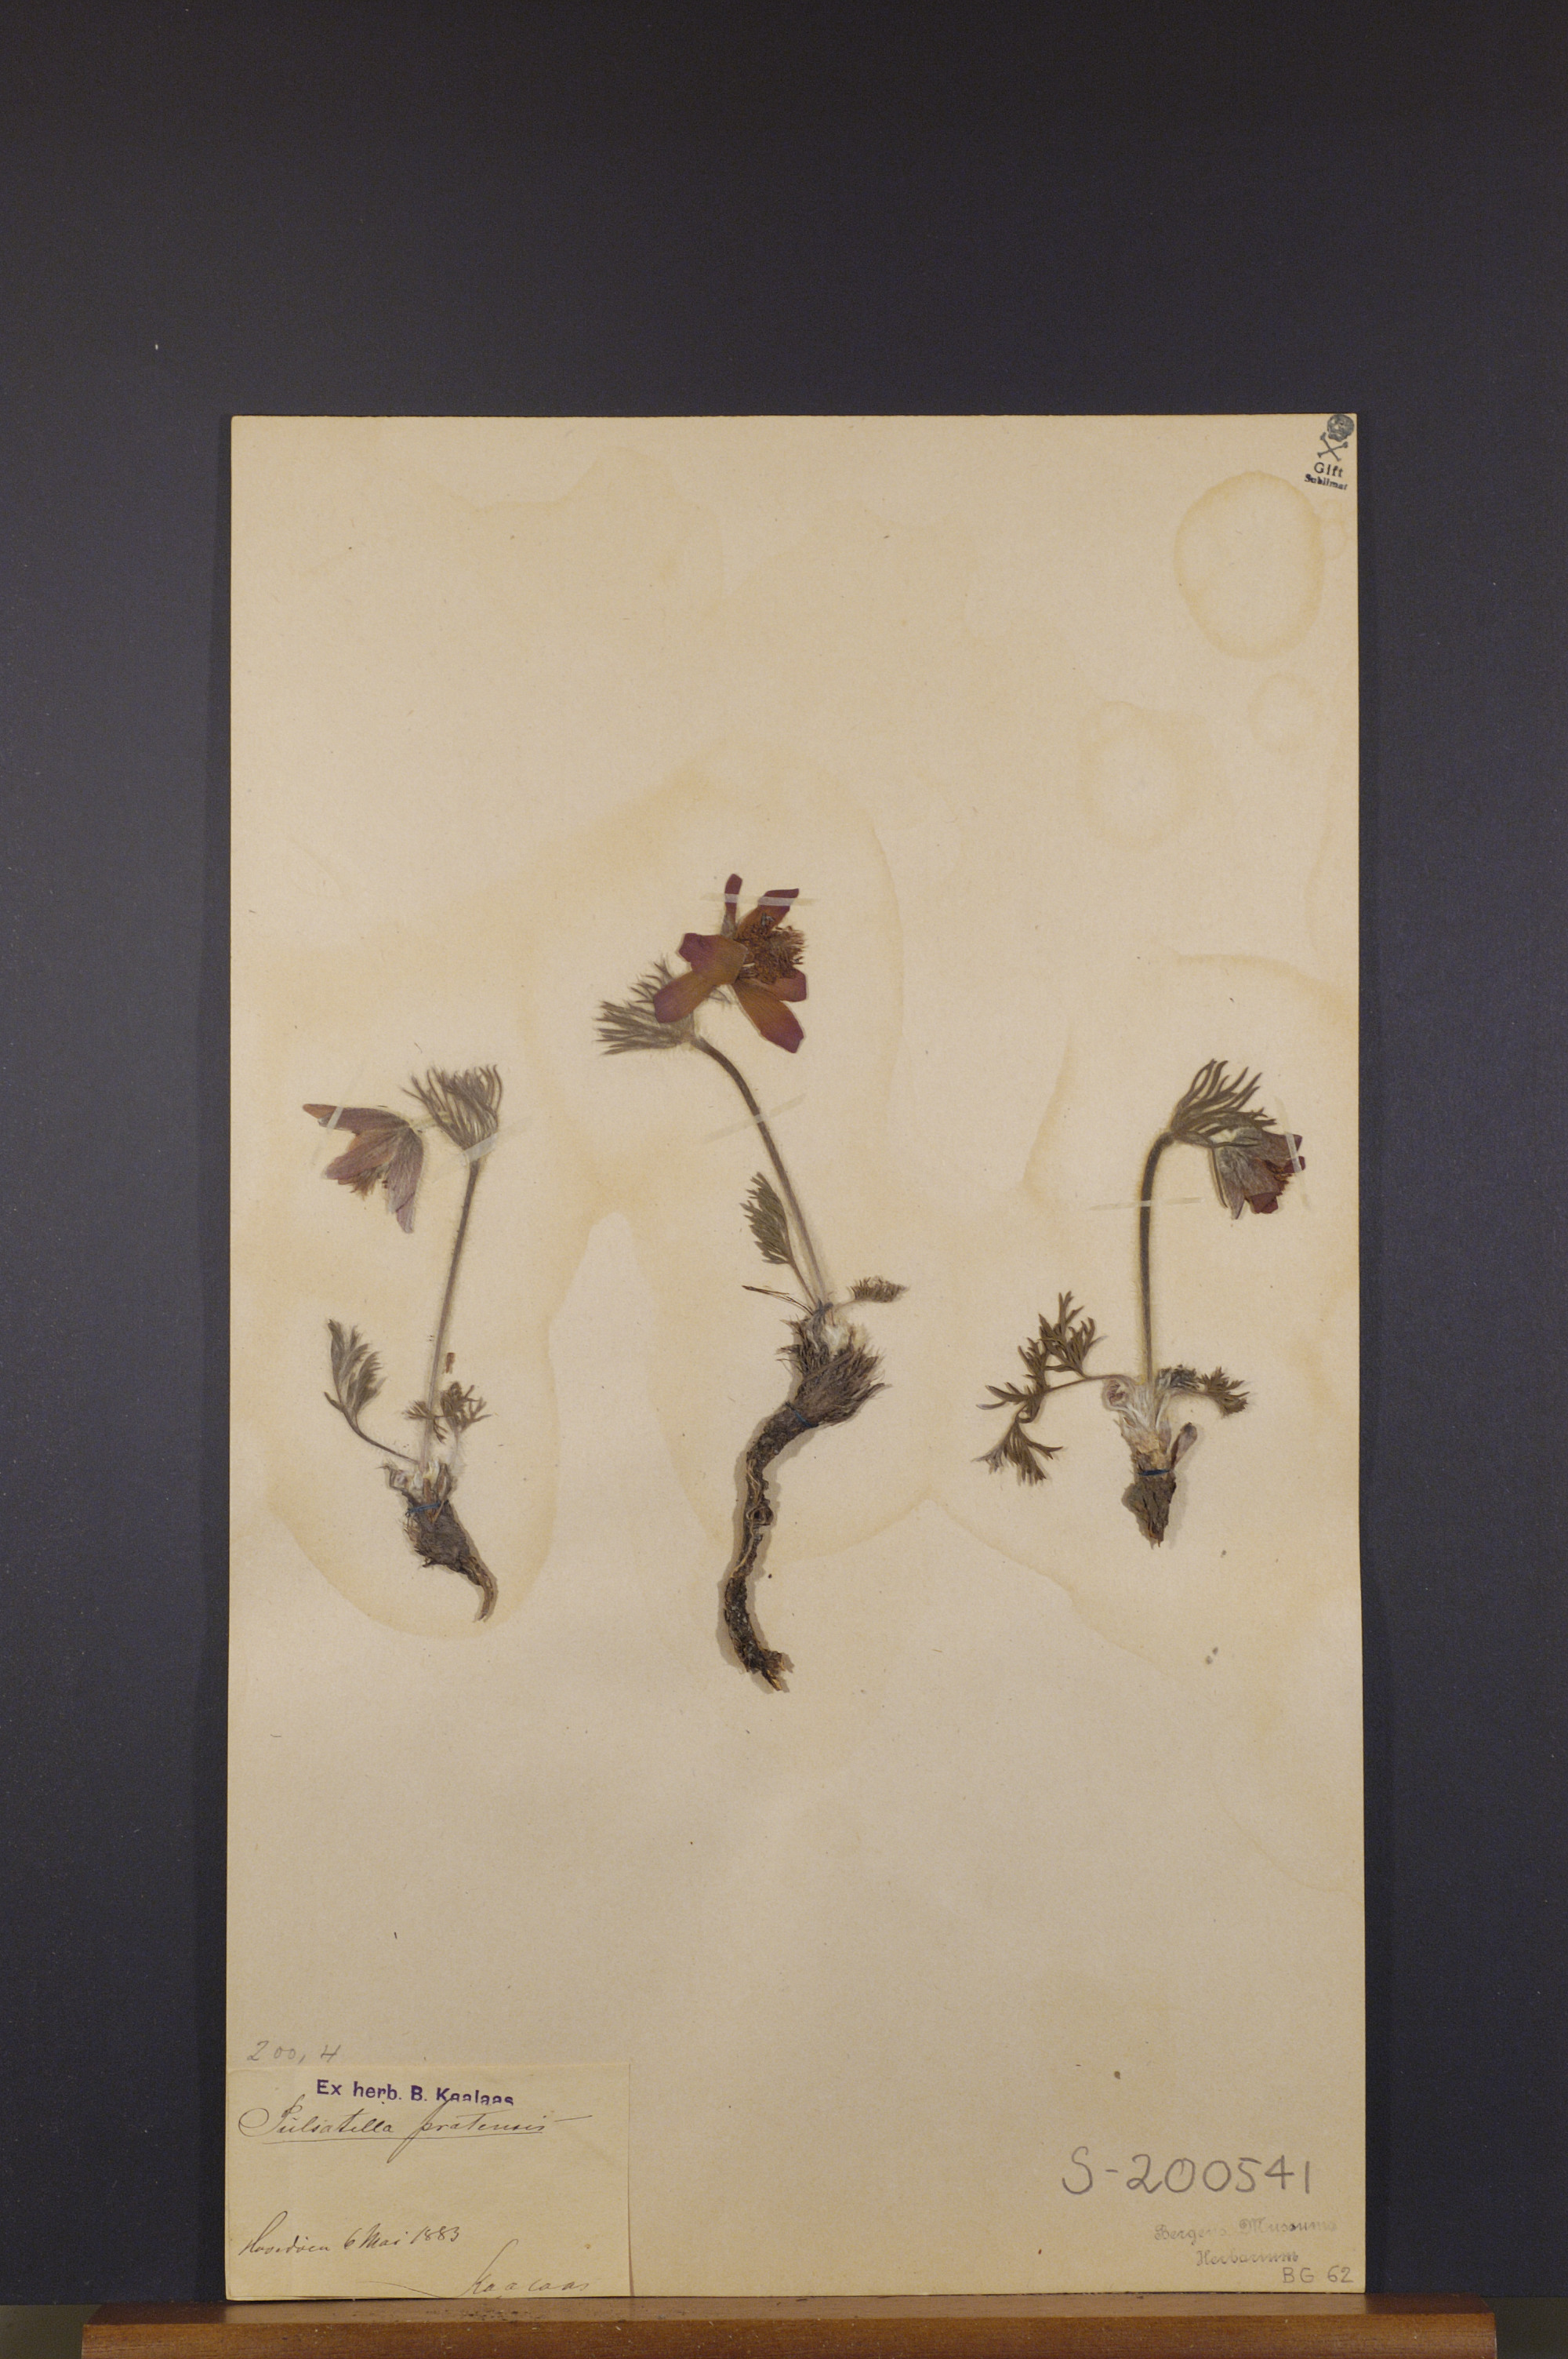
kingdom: Plantae
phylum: Tracheophyta
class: Magnoliopsida
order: Ranunculales
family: Ranunculaceae
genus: Pulsatilla
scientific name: Pulsatilla pratensis
